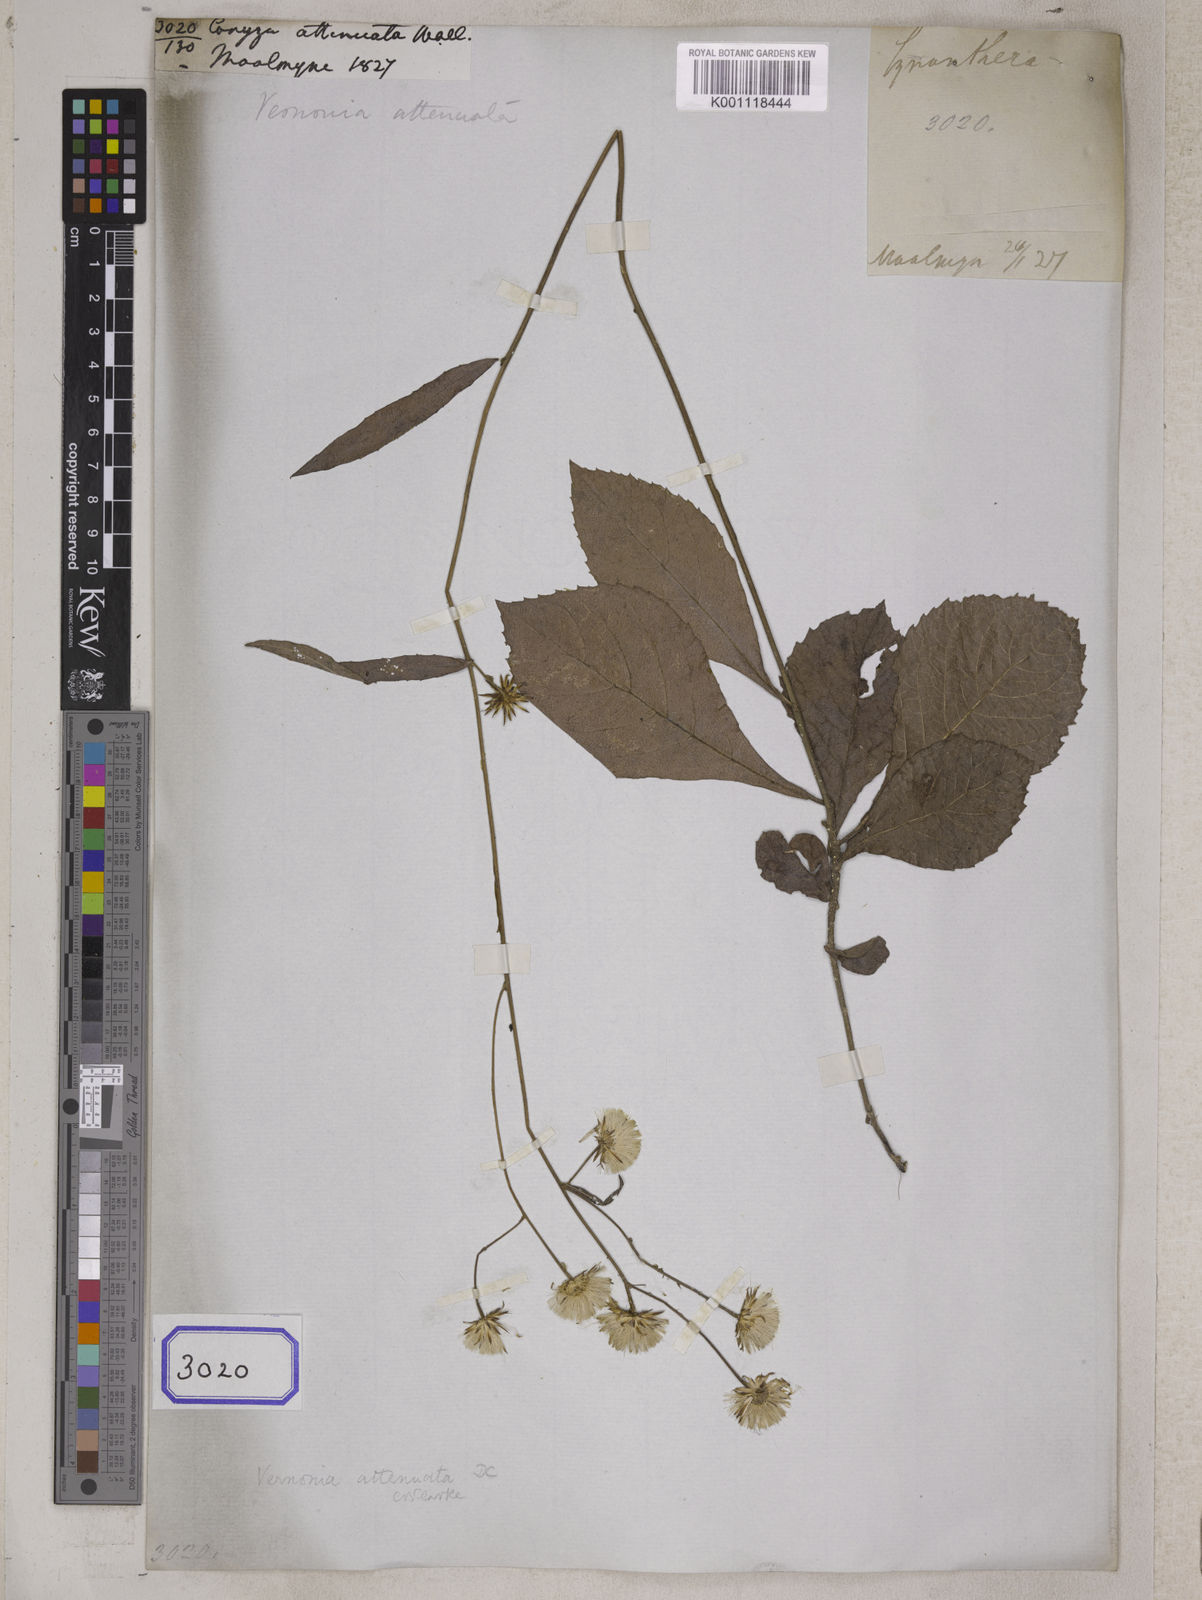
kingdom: Plantae
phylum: Tracheophyta
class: Magnoliopsida
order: Asterales
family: Asteraceae
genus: Acilepis
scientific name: Acilepis attenuata
